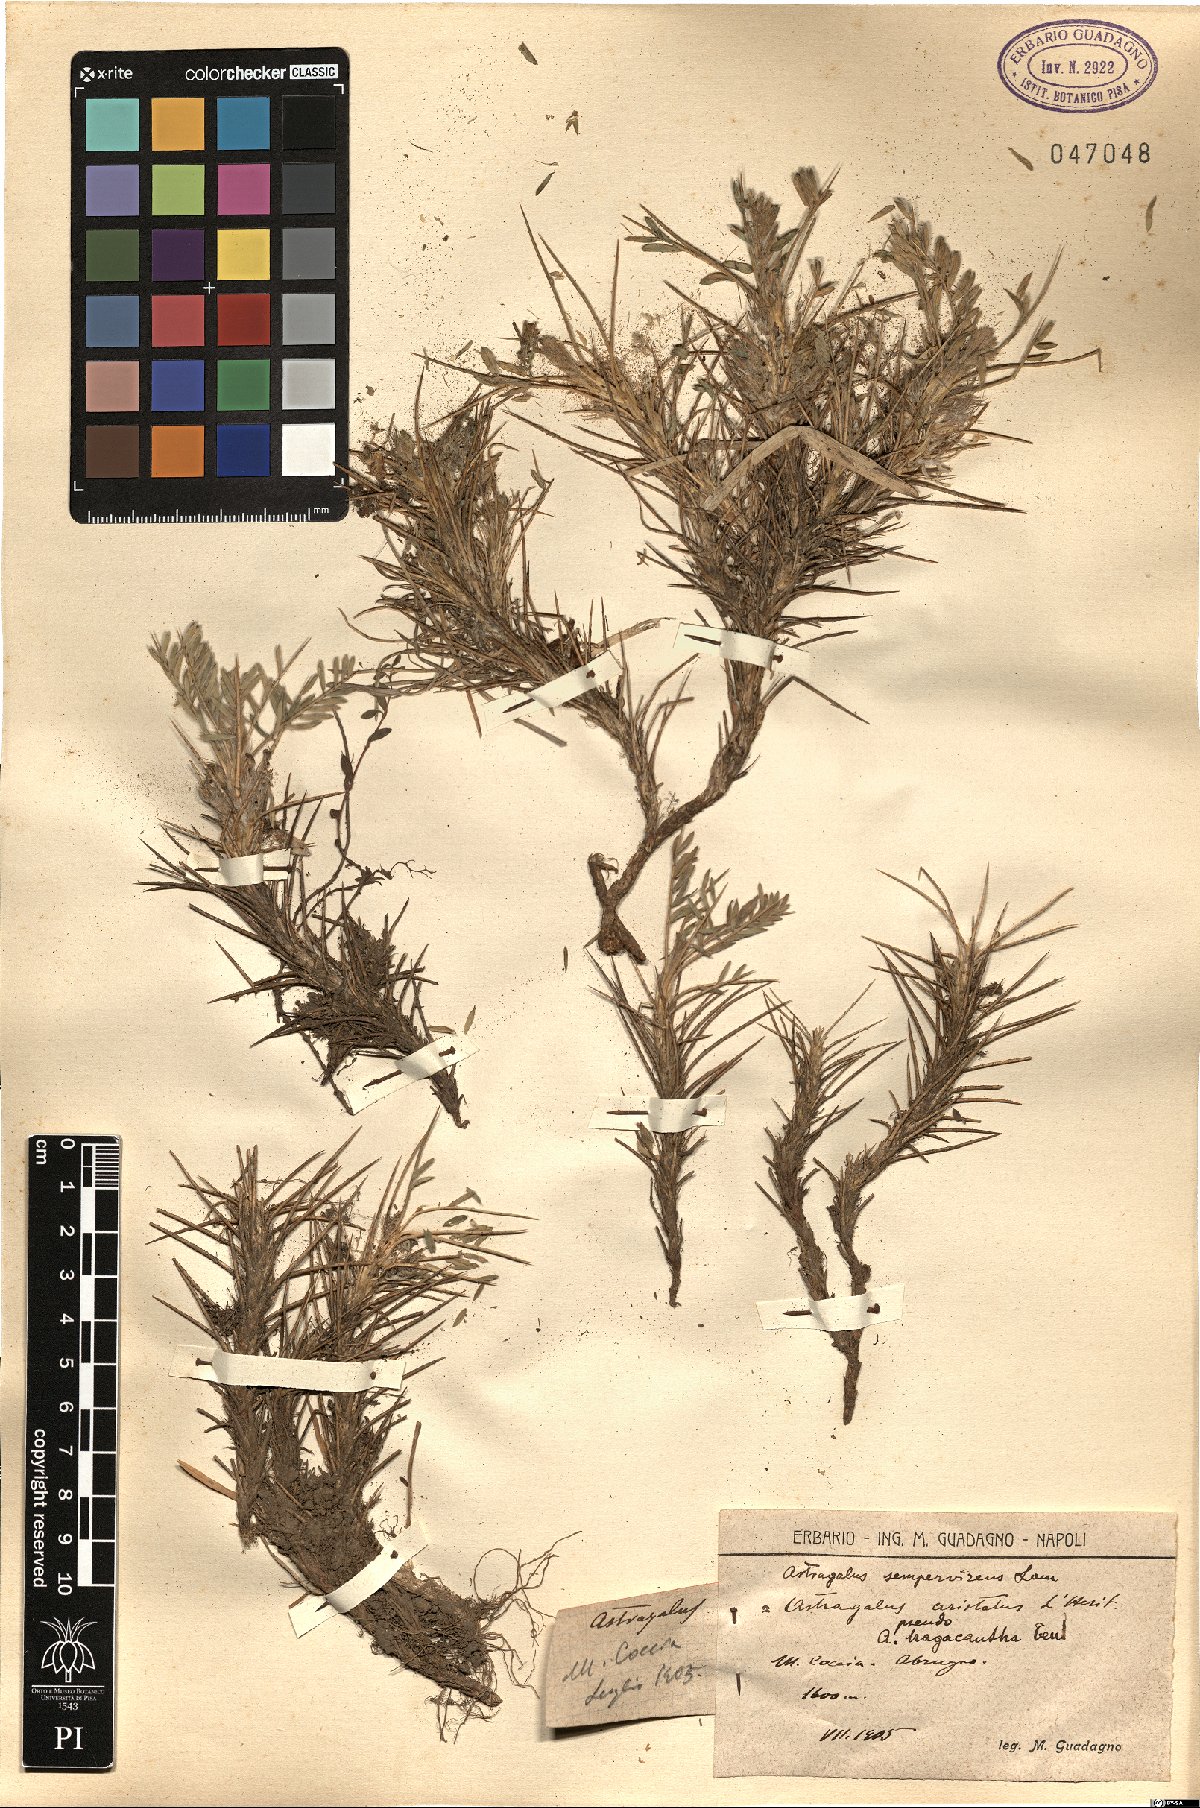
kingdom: Plantae
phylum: Tracheophyta
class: Magnoliopsida
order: Fabales
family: Fabaceae
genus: Astragalus
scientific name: Astragalus sempervirens
